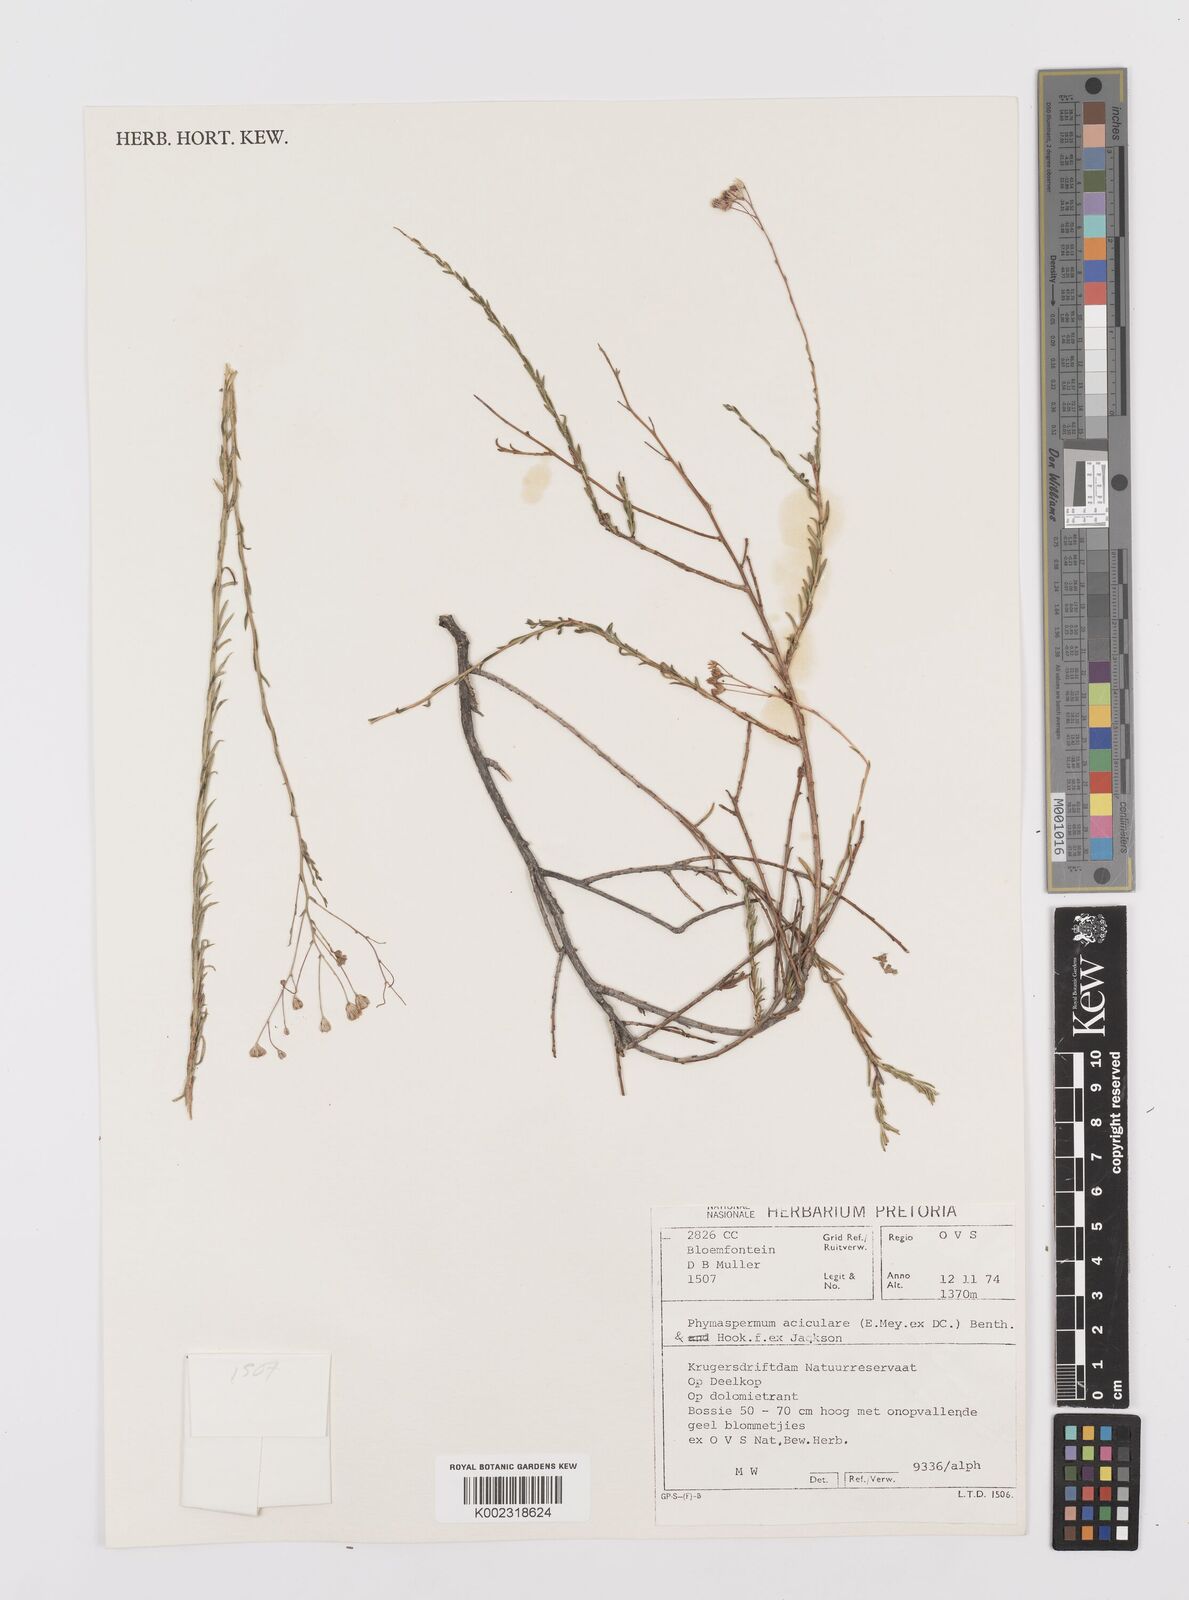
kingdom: Plantae
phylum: Tracheophyta
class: Magnoliopsida
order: Asterales
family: Asteraceae
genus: Phymaspermum
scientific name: Phymaspermum aciculare
